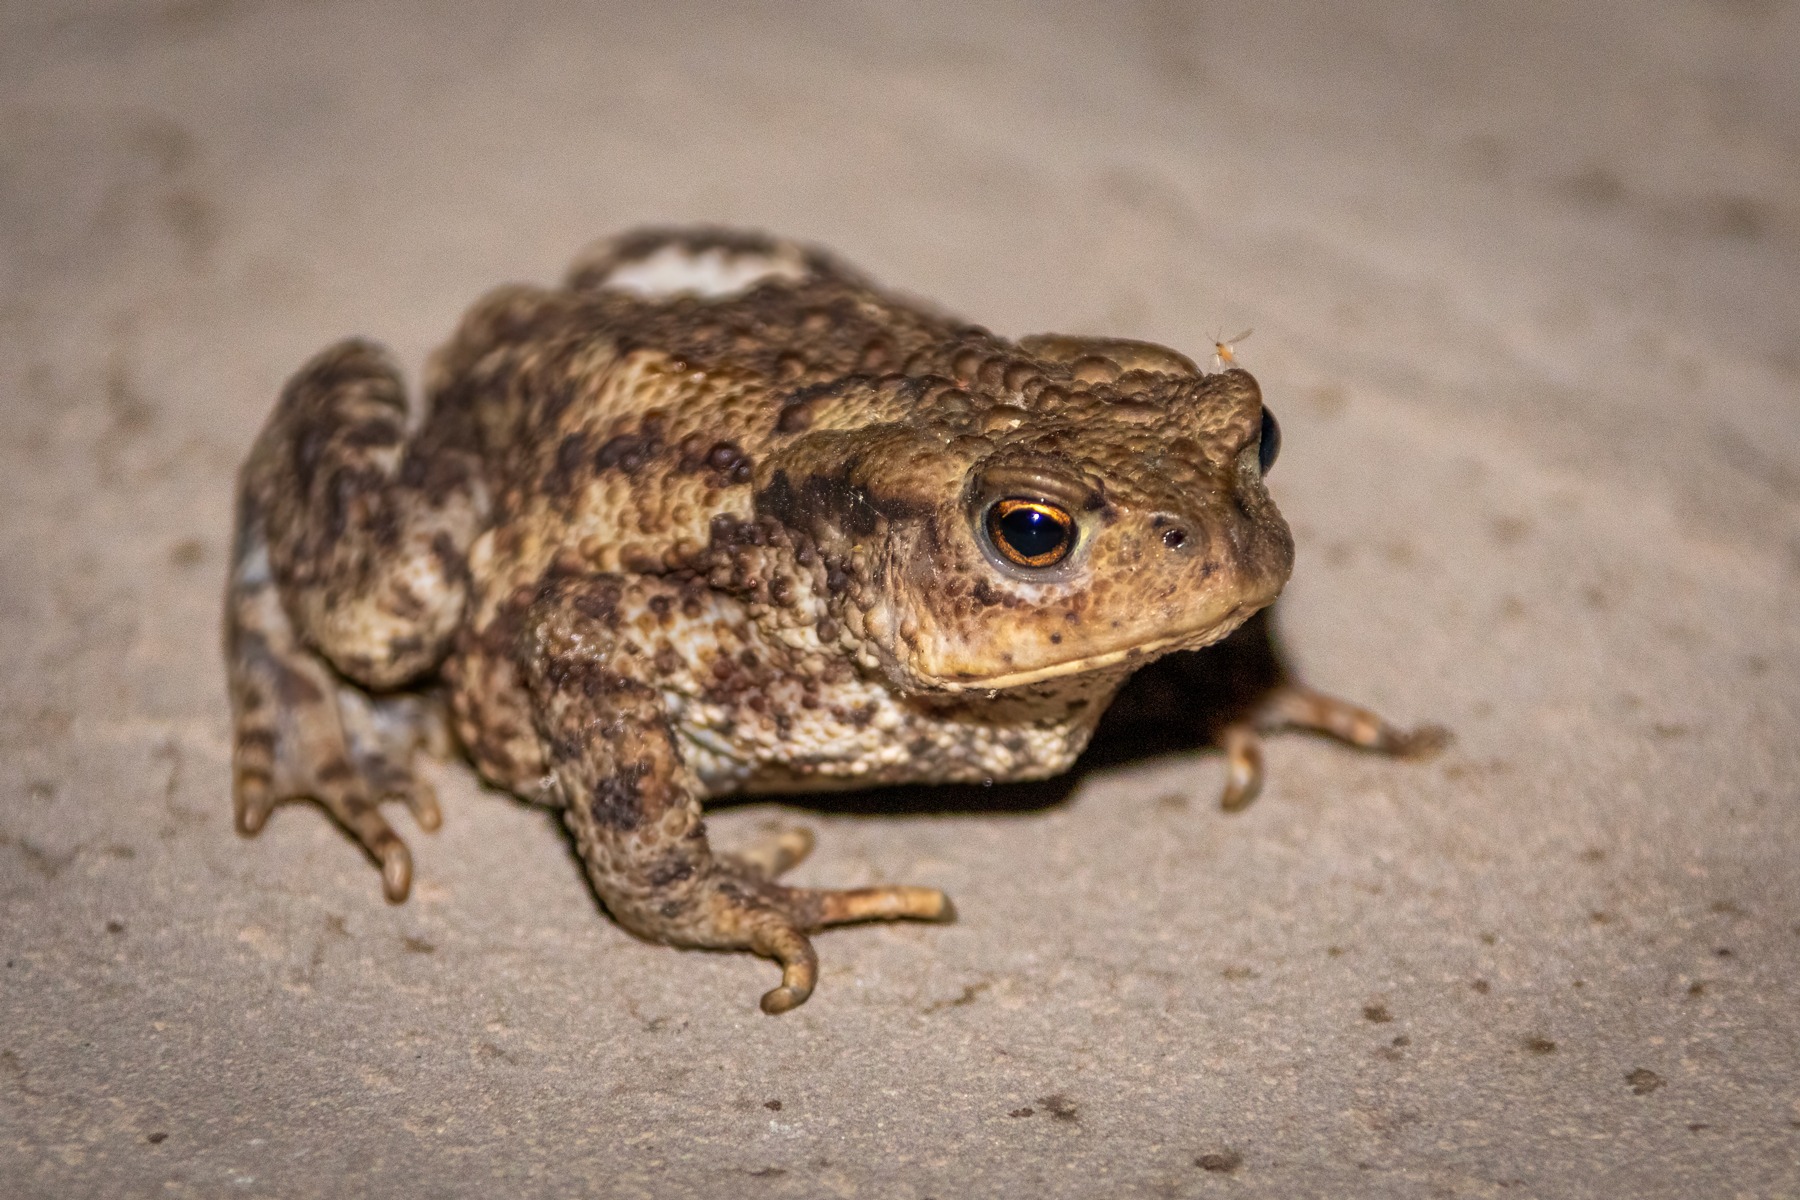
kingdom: Animalia
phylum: Chordata
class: Amphibia
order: Anura
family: Bufonidae
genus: Bufo
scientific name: Bufo bufo
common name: Skrubtudse
